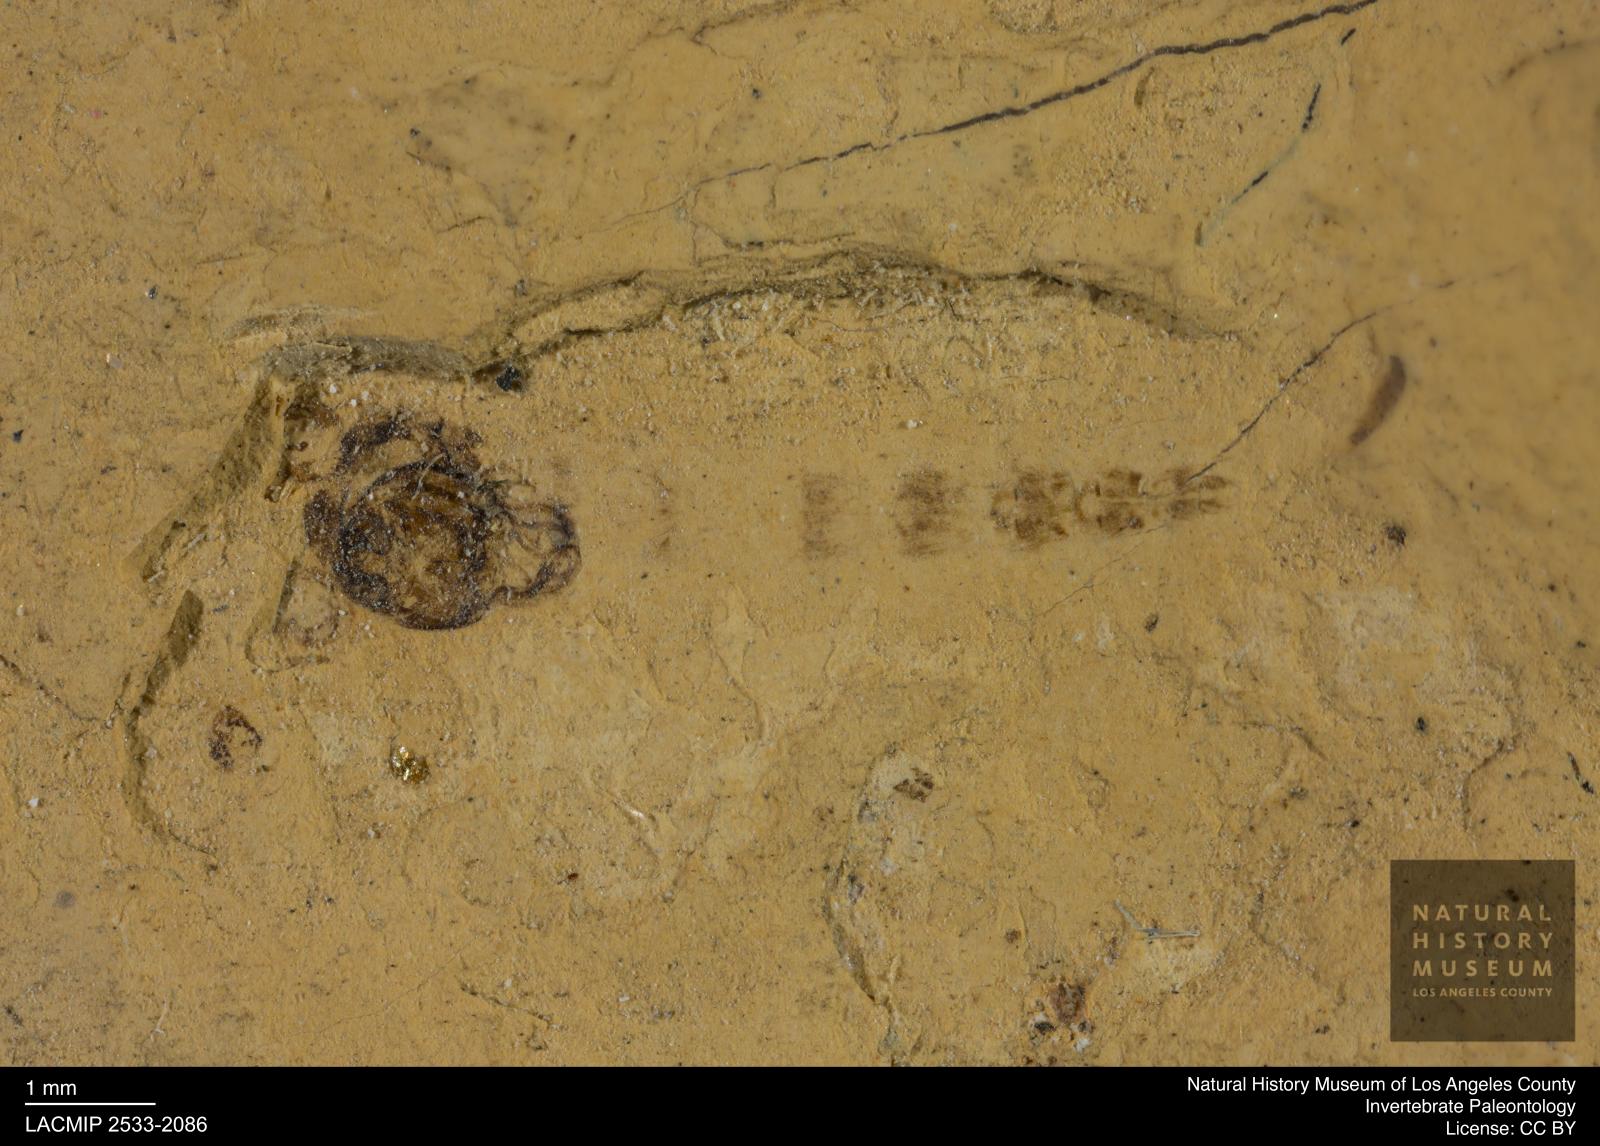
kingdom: Animalia
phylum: Arthropoda
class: Insecta
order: Diptera
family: Chironomidae
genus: Pelopiina
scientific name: Pelopiina
